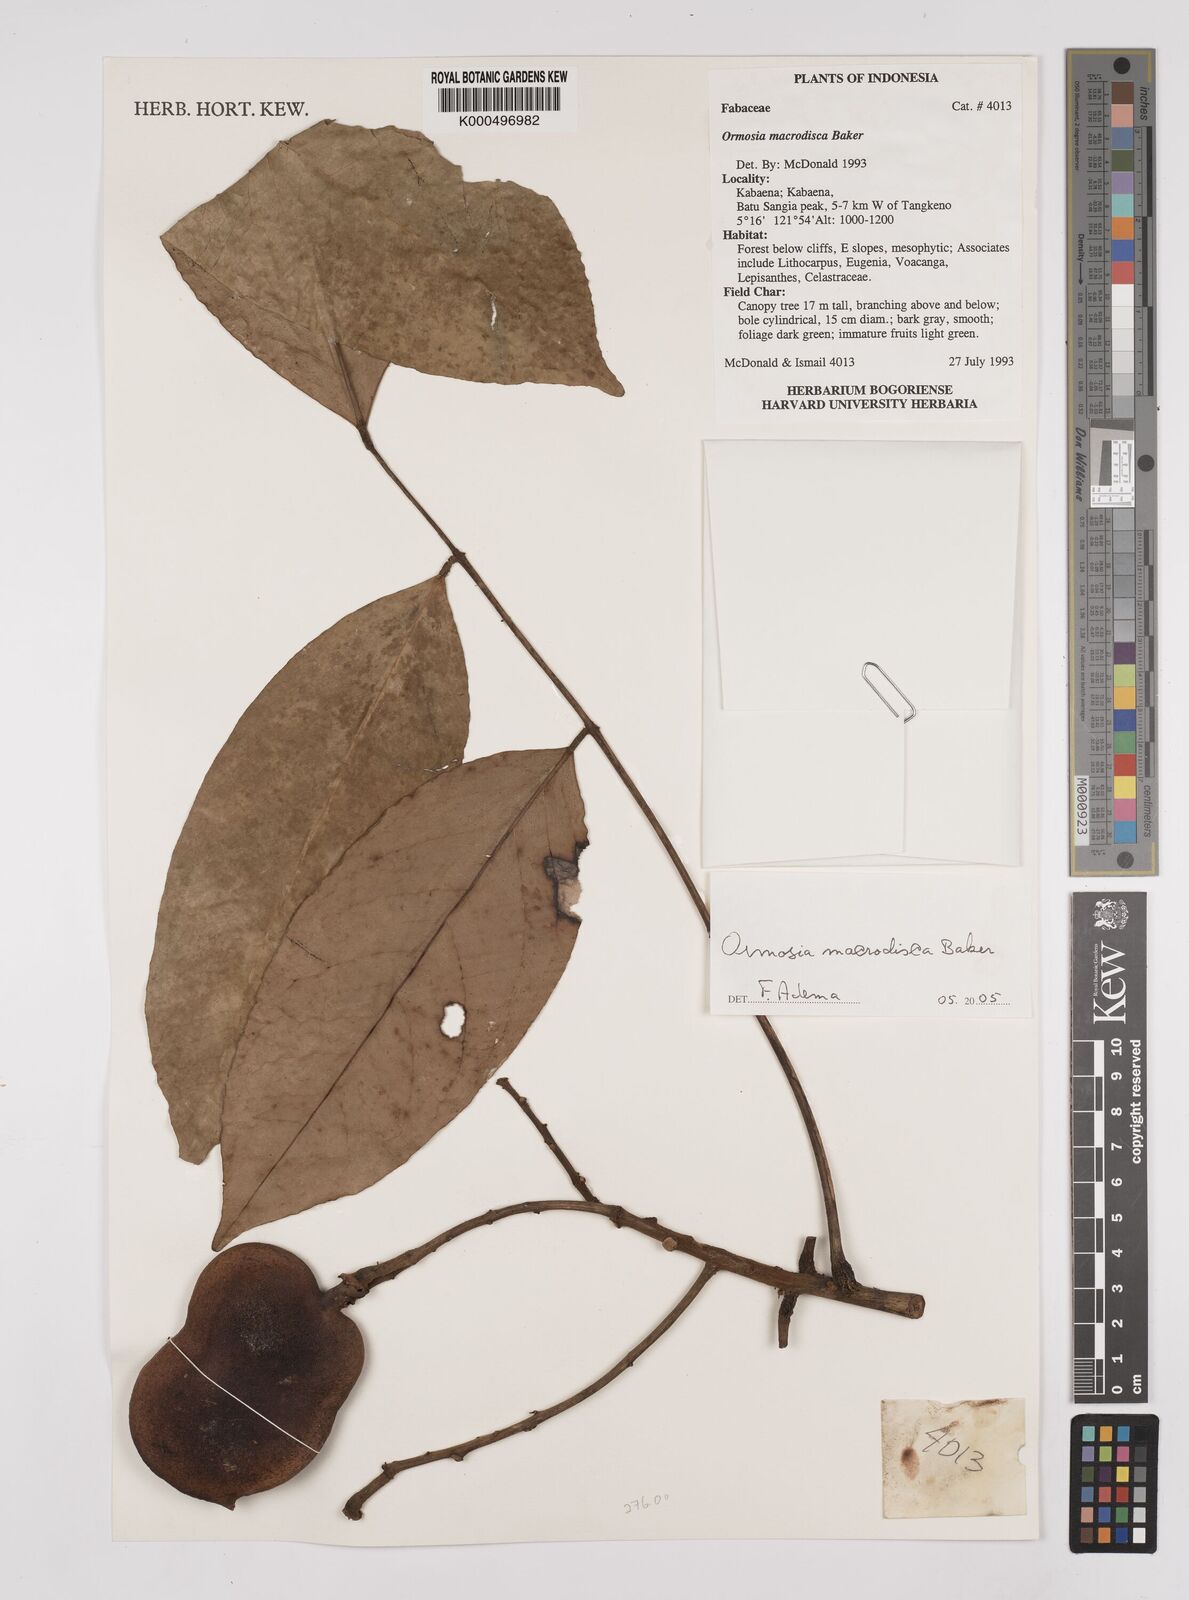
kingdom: Plantae
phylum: Tracheophyta
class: Magnoliopsida
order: Fabales
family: Fabaceae
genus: Ormosia
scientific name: Ormosia macrodisca
